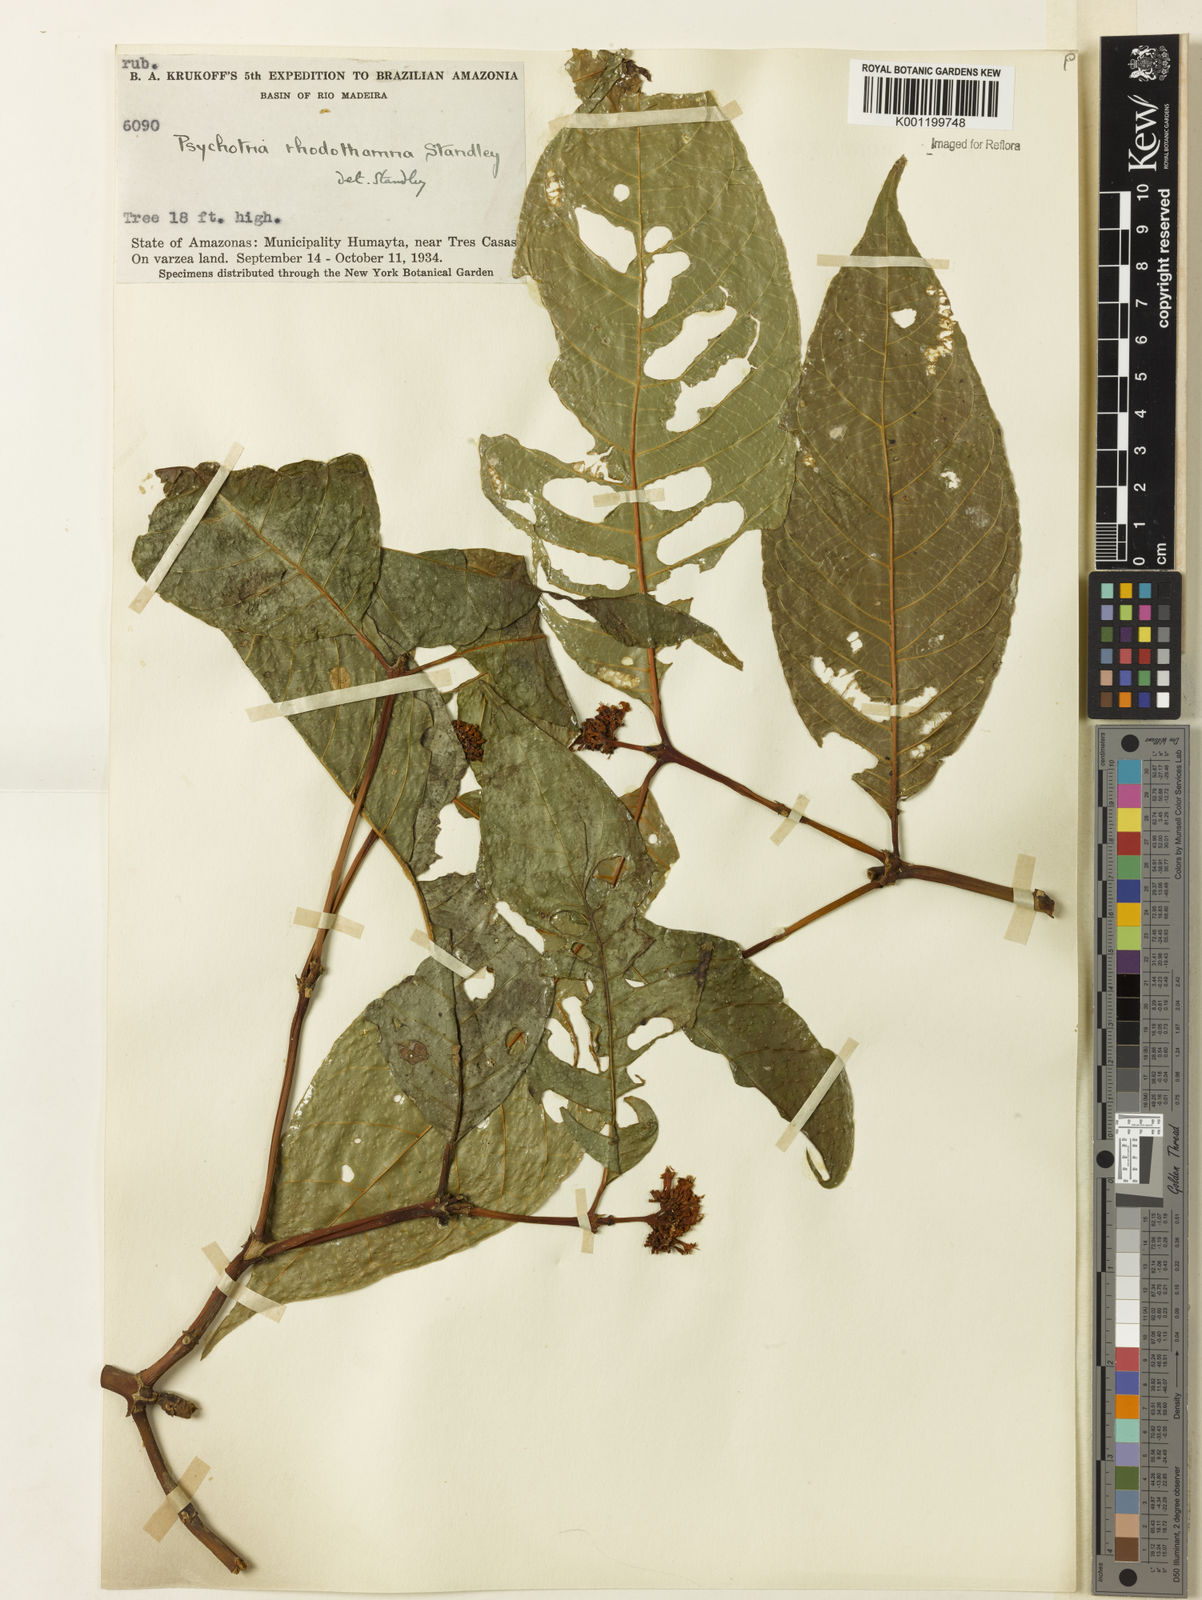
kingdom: Plantae
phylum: Tracheophyta
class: Magnoliopsida
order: Gentianales
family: Rubiaceae
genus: Palicourea
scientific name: Palicourea rhodothamna
